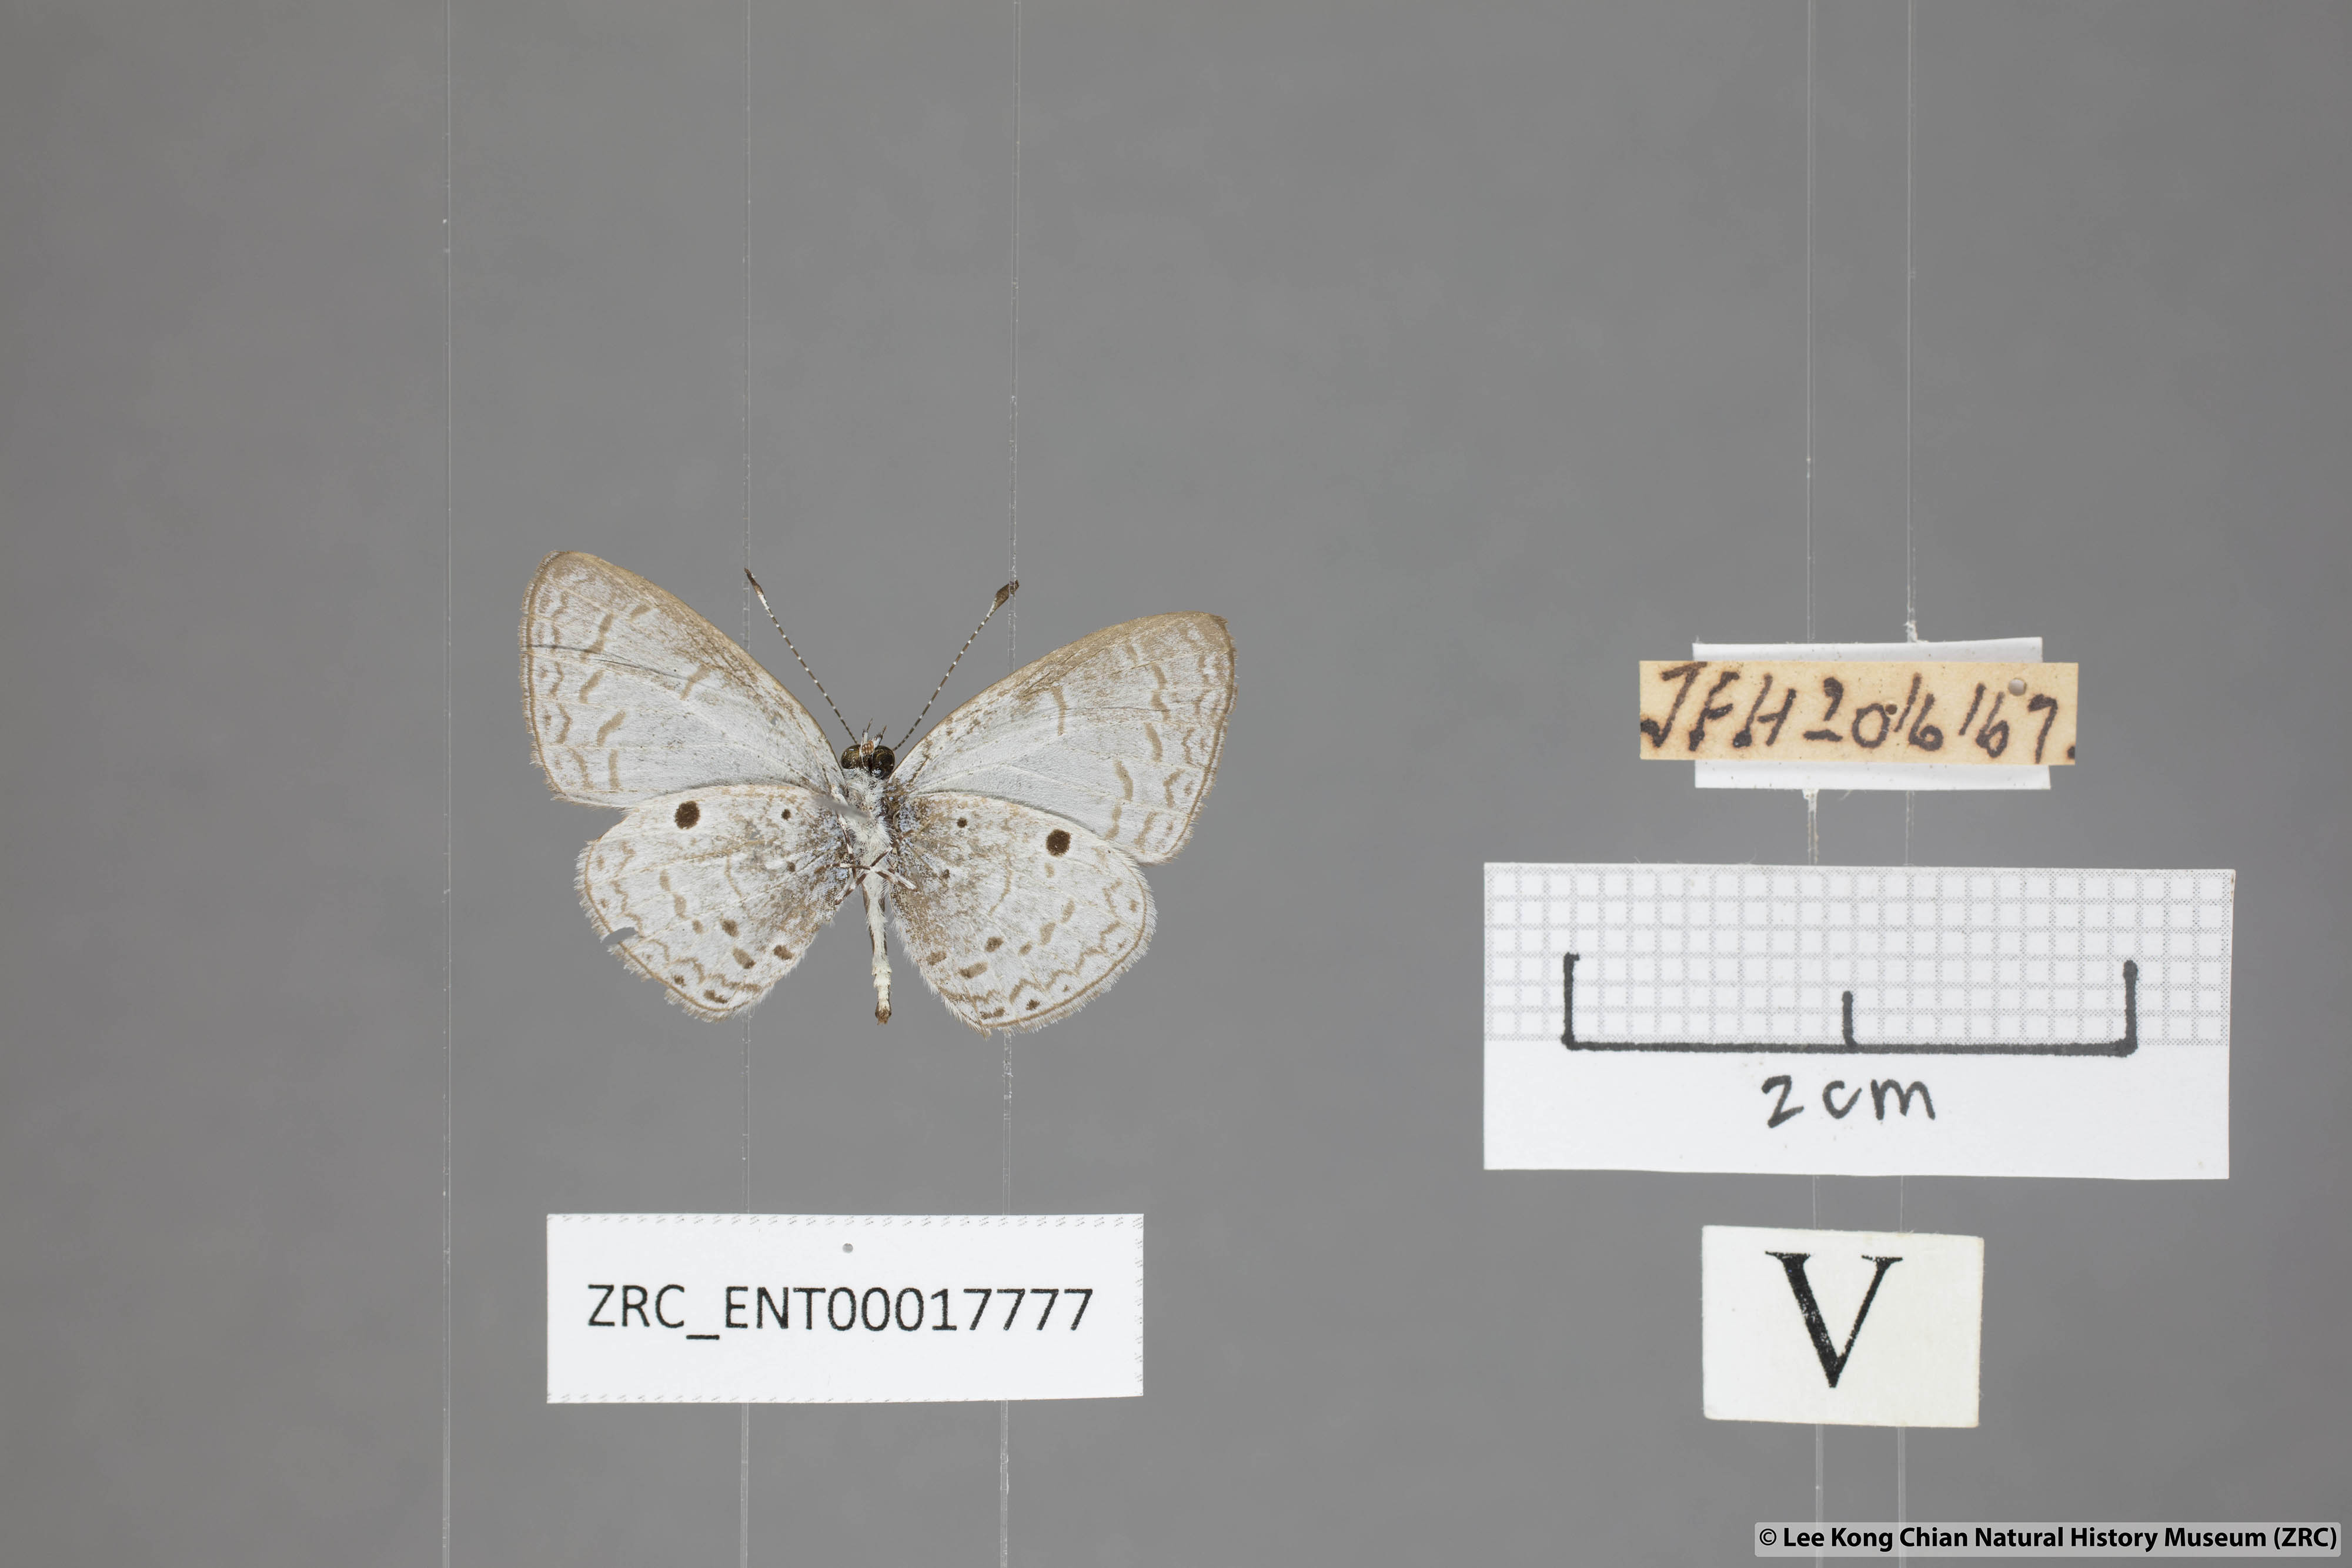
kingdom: Animalia
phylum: Arthropoda
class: Insecta
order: Lepidoptera
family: Lycaenidae
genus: Callenya
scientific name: Callenya lenya
